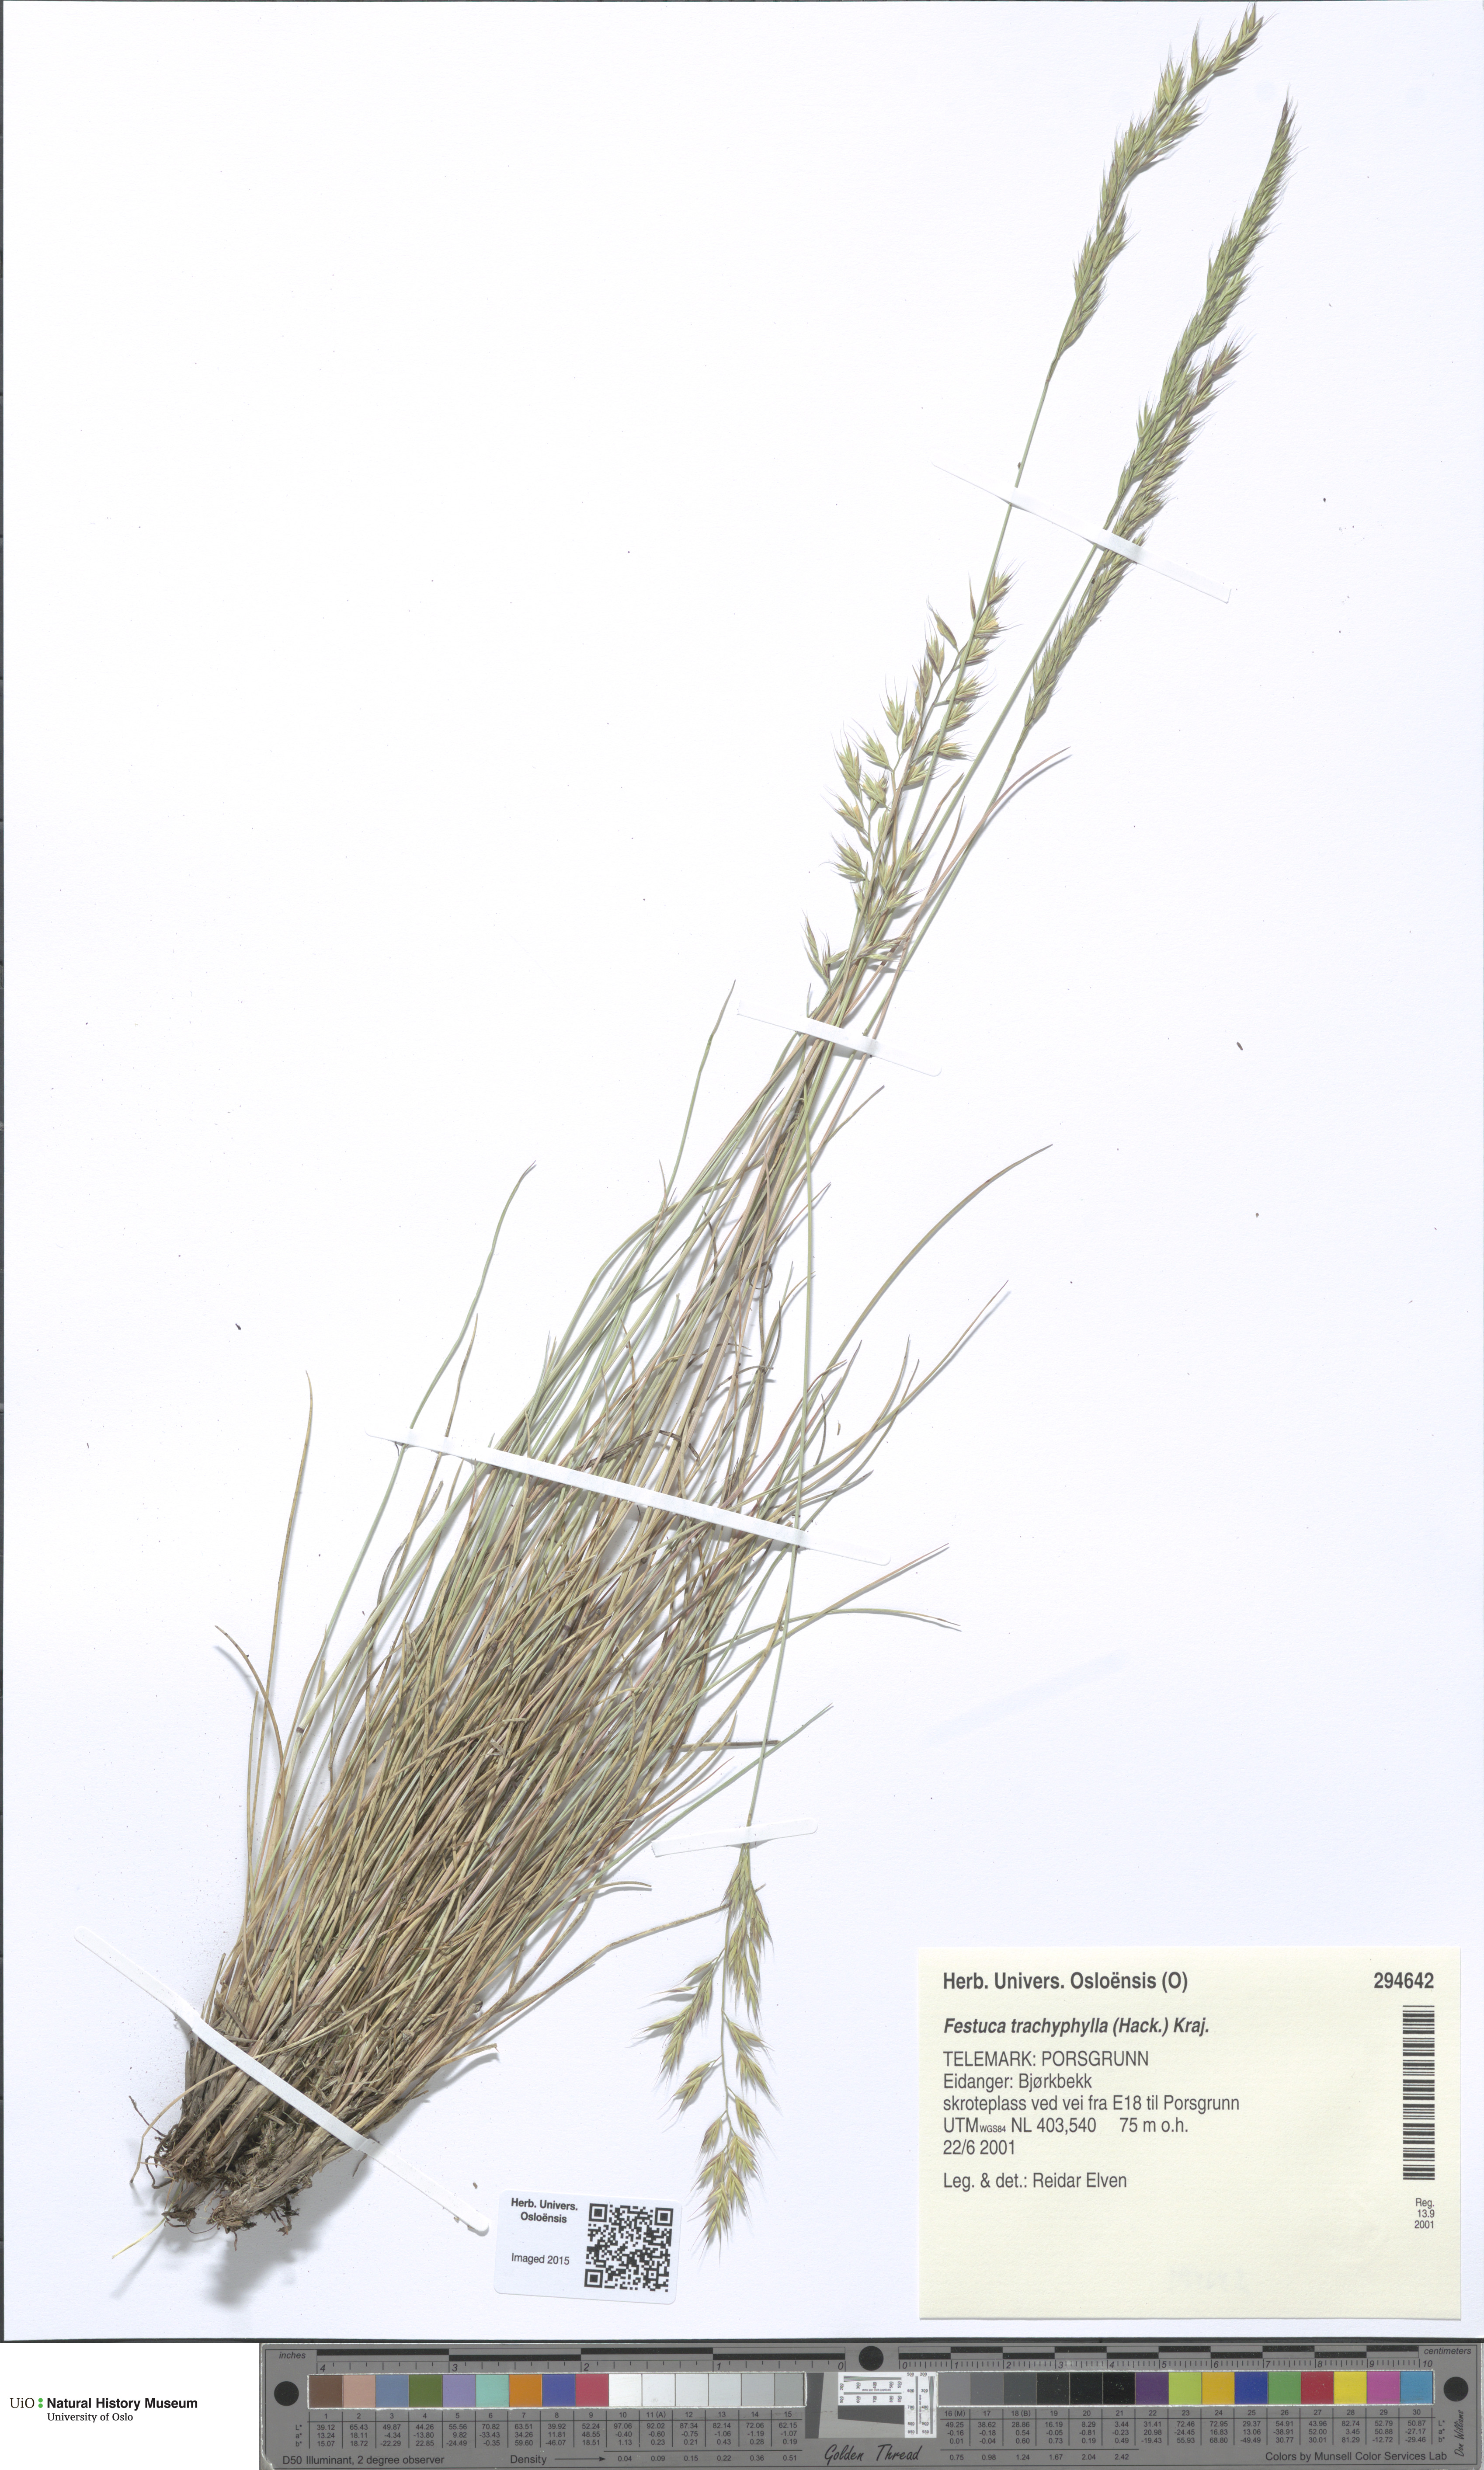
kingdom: Plantae
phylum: Tracheophyta
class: Liliopsida
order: Poales
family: Poaceae
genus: Festuca
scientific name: Festuca trachyphylla
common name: Hard fescue
